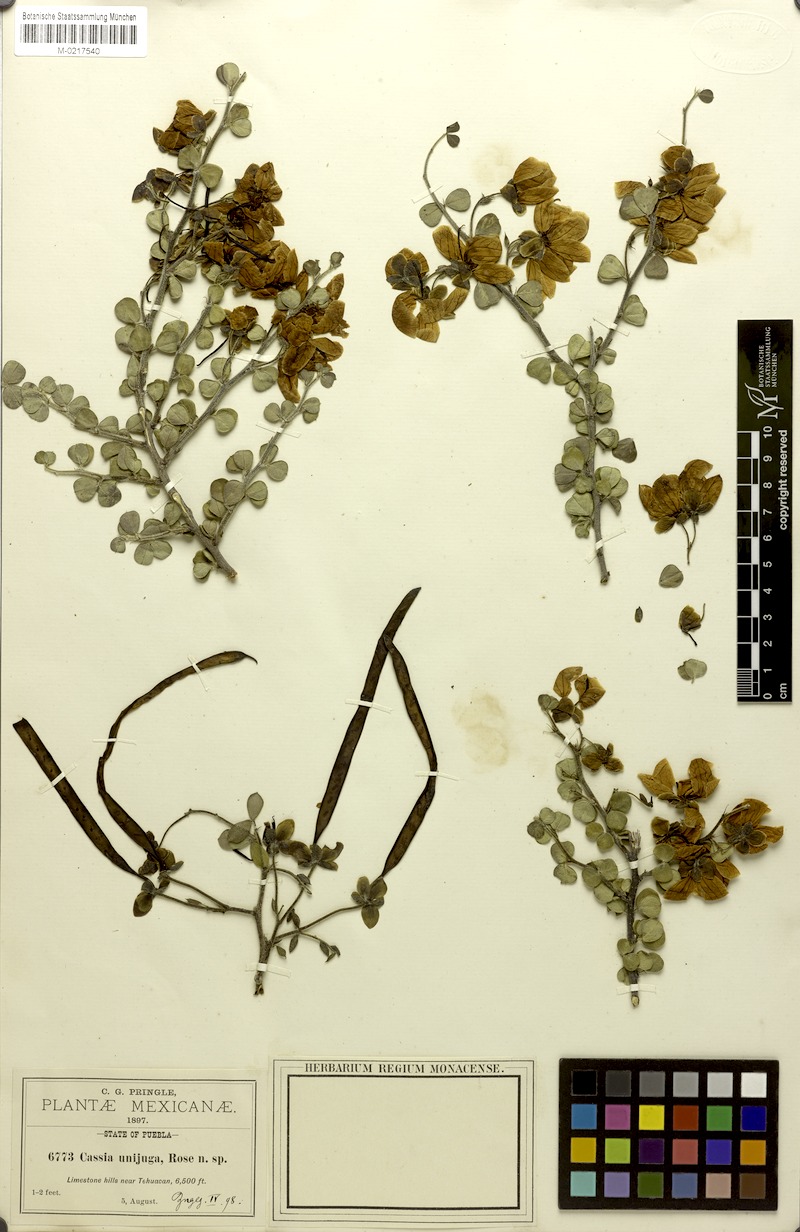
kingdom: Plantae
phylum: Tracheophyta
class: Magnoliopsida
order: Fabales
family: Fabaceae
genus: Senna
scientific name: Senna unijuga
